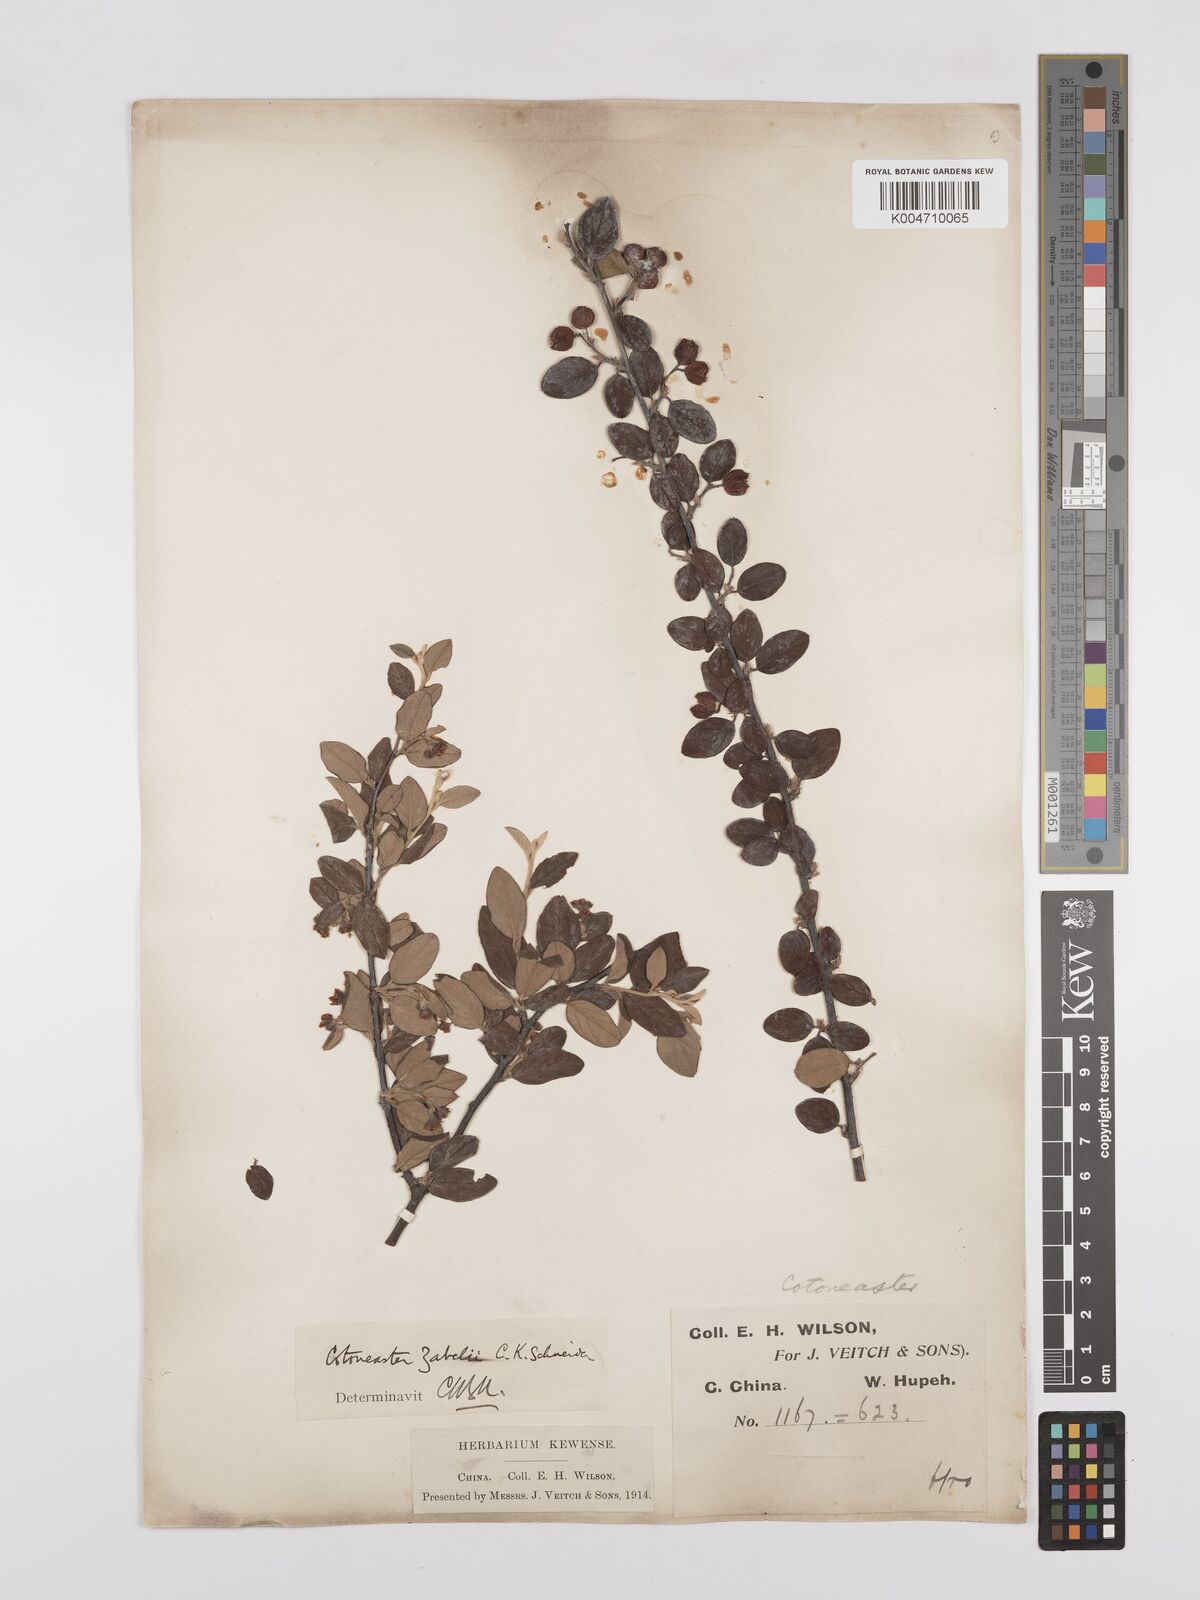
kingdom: Plantae
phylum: Tracheophyta
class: Magnoliopsida
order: Rosales
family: Rosaceae
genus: Cotoneaster
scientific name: Cotoneaster zabelii
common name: Cherryred cotoneaster
